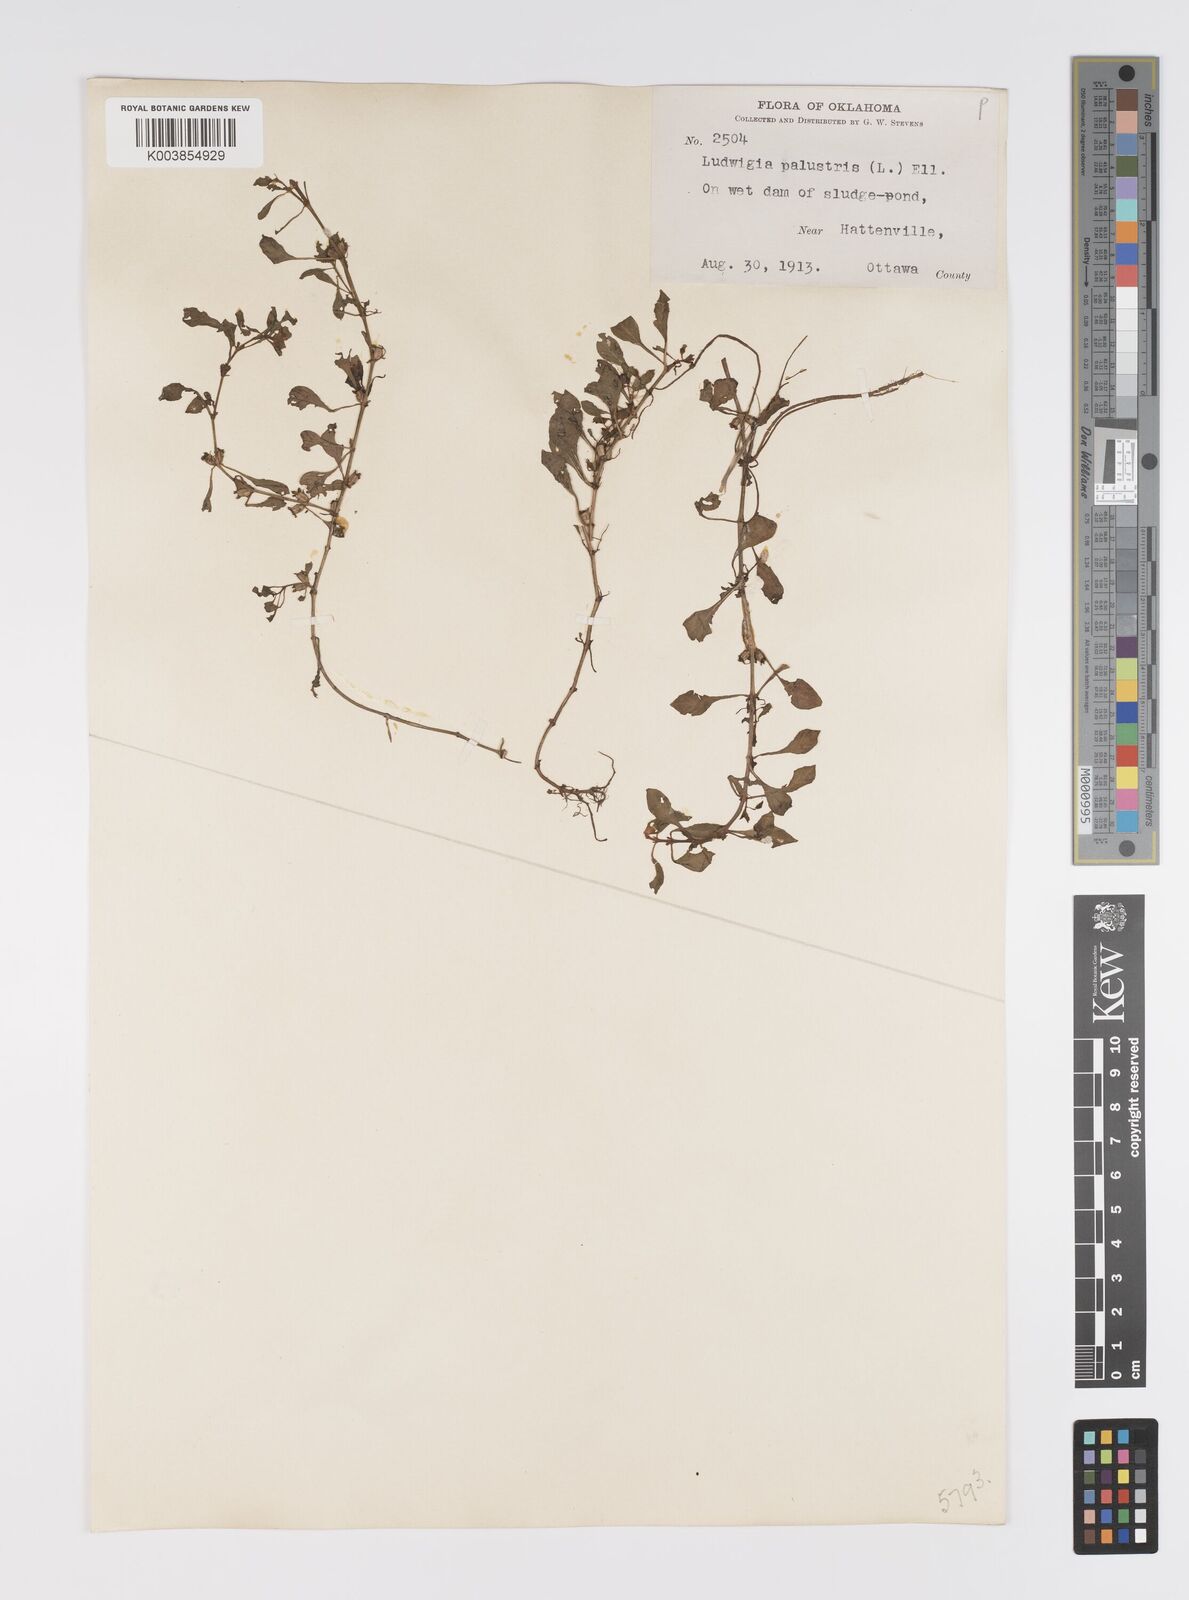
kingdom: Plantae
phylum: Tracheophyta
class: Magnoliopsida
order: Myrtales
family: Onagraceae
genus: Ludwigia
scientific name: Ludwigia palustris
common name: Hampshire-purslane
